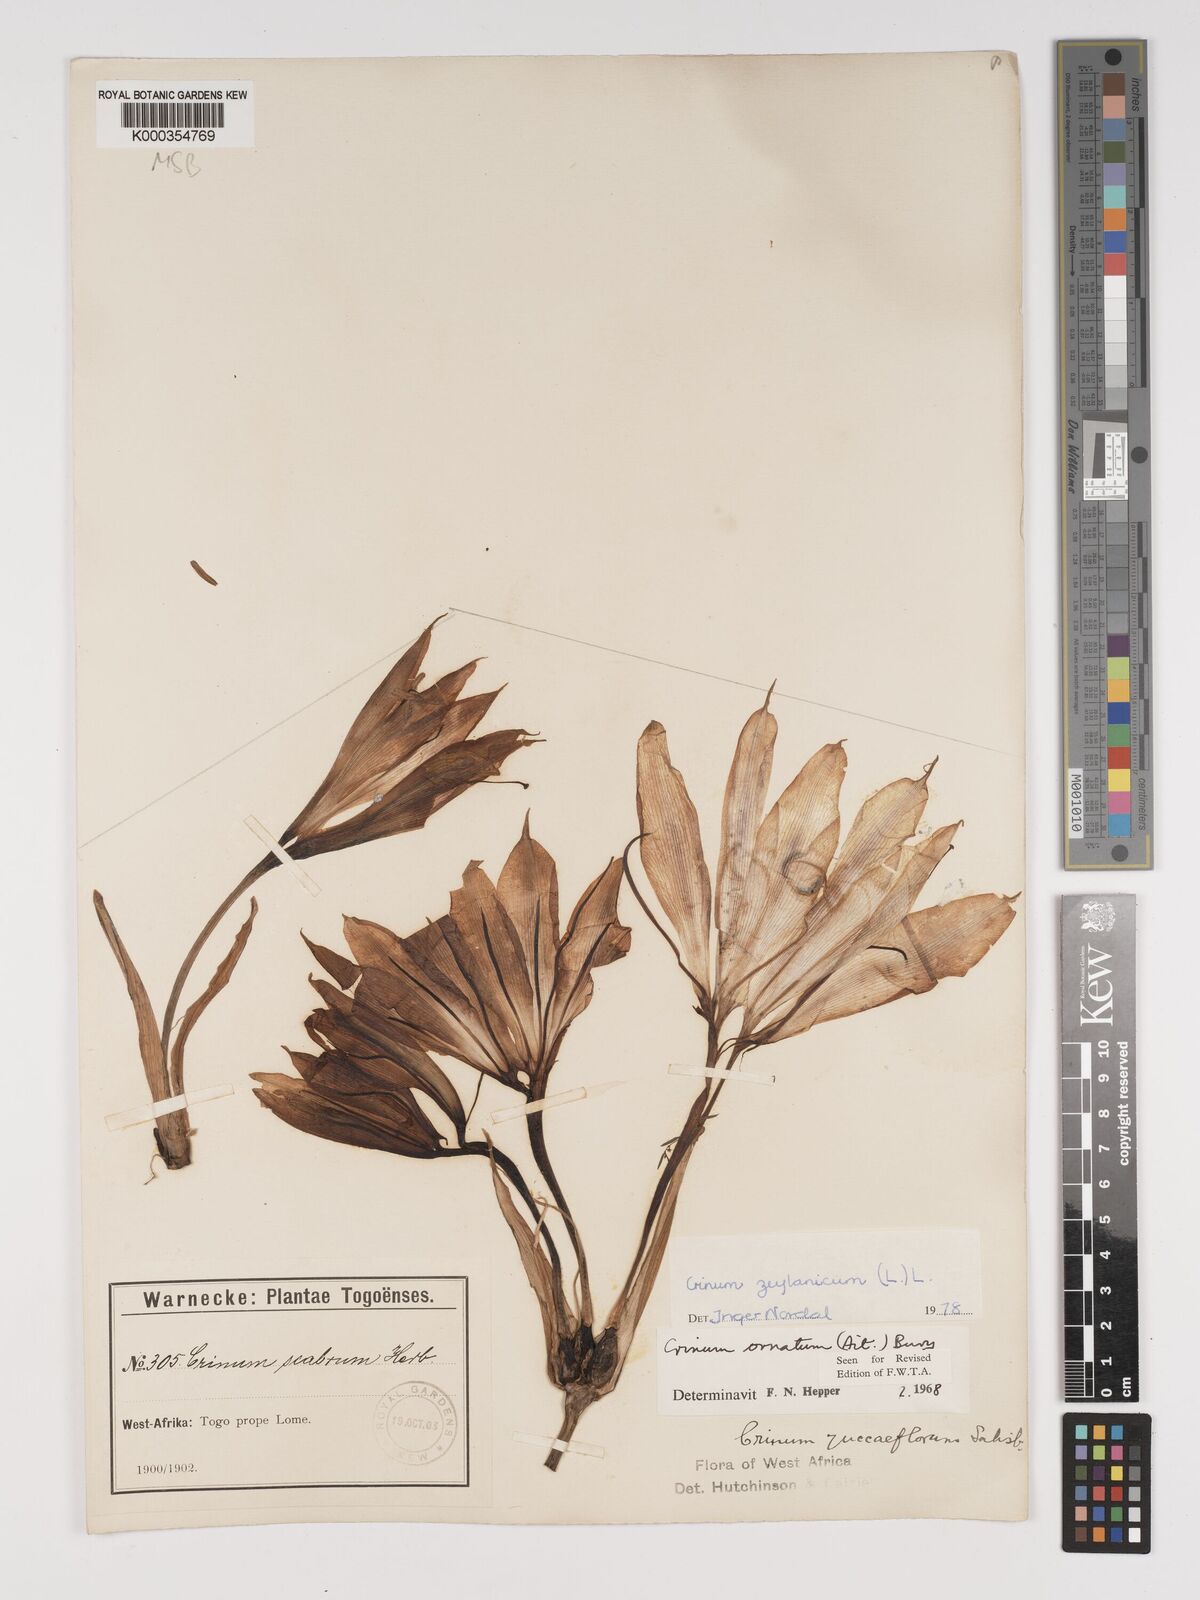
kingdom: Plantae
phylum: Tracheophyta
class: Liliopsida
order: Asparagales
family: Amaryllidaceae
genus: Crinum
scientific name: Crinum zeylanicum
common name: Ceylon swamplily
